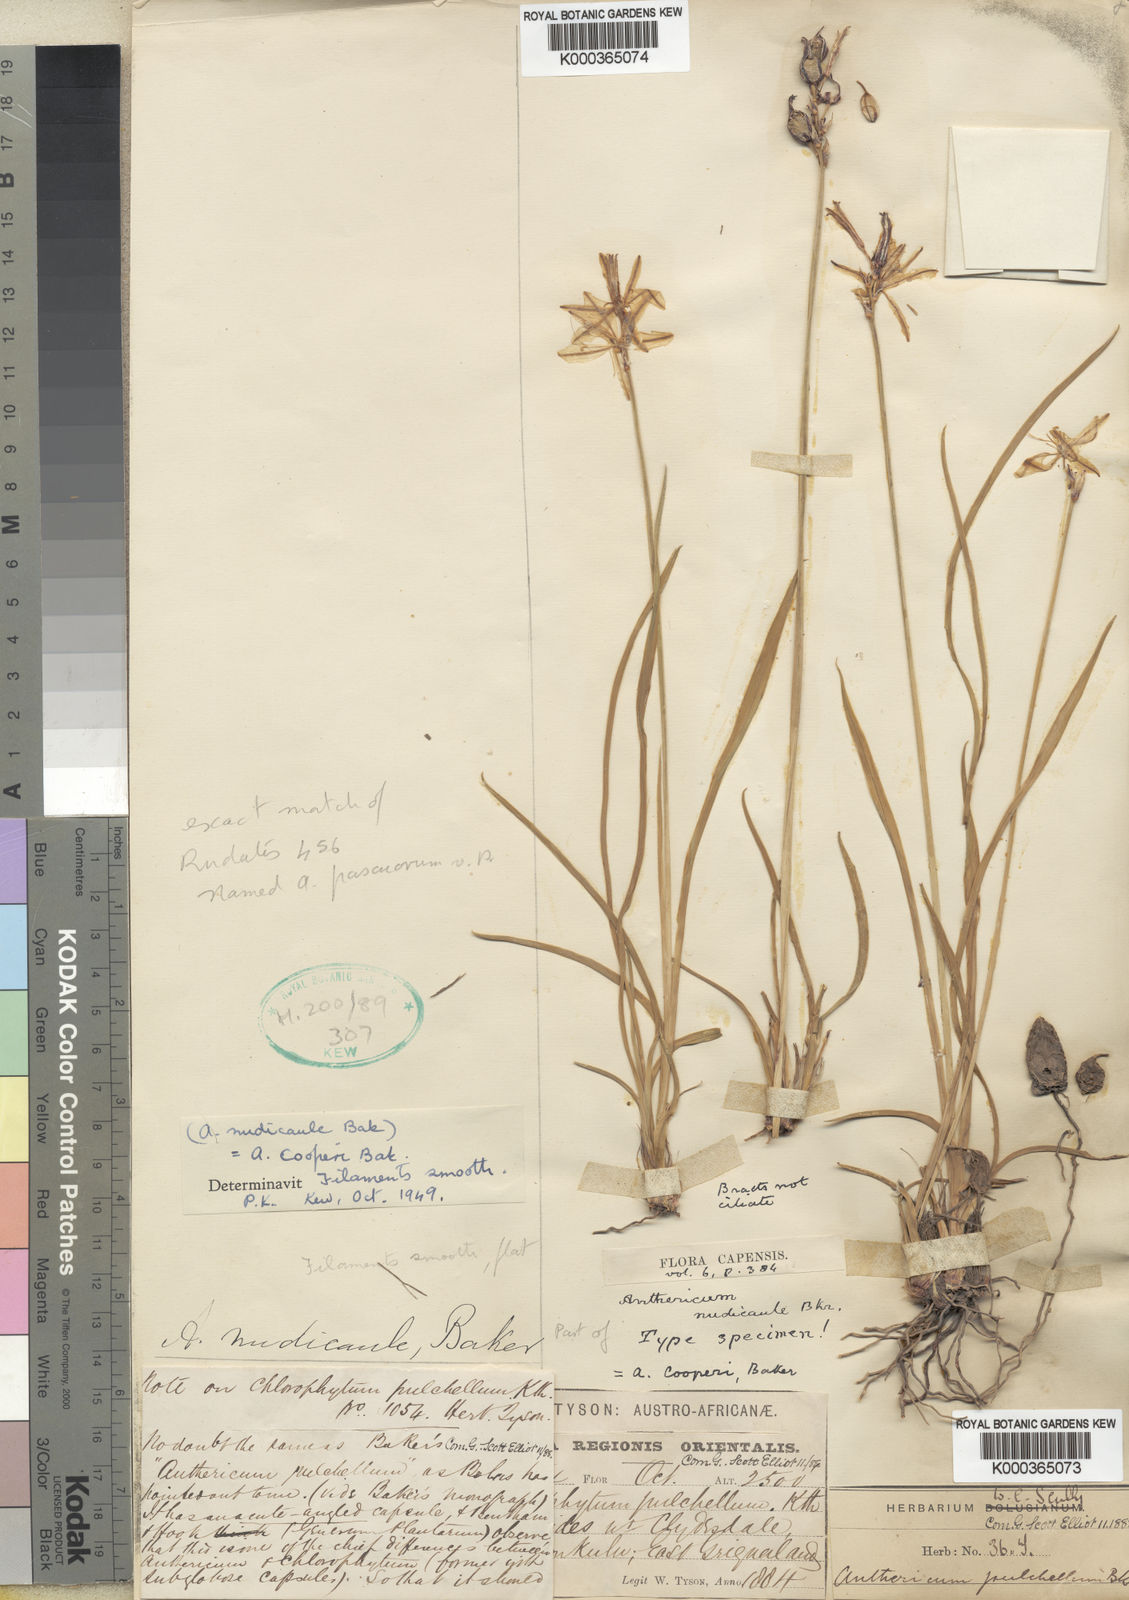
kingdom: Plantae
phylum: Tracheophyta
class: Liliopsida
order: Asparagales
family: Asparagaceae
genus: Chlorophytum
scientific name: Chlorophytum cooperi
